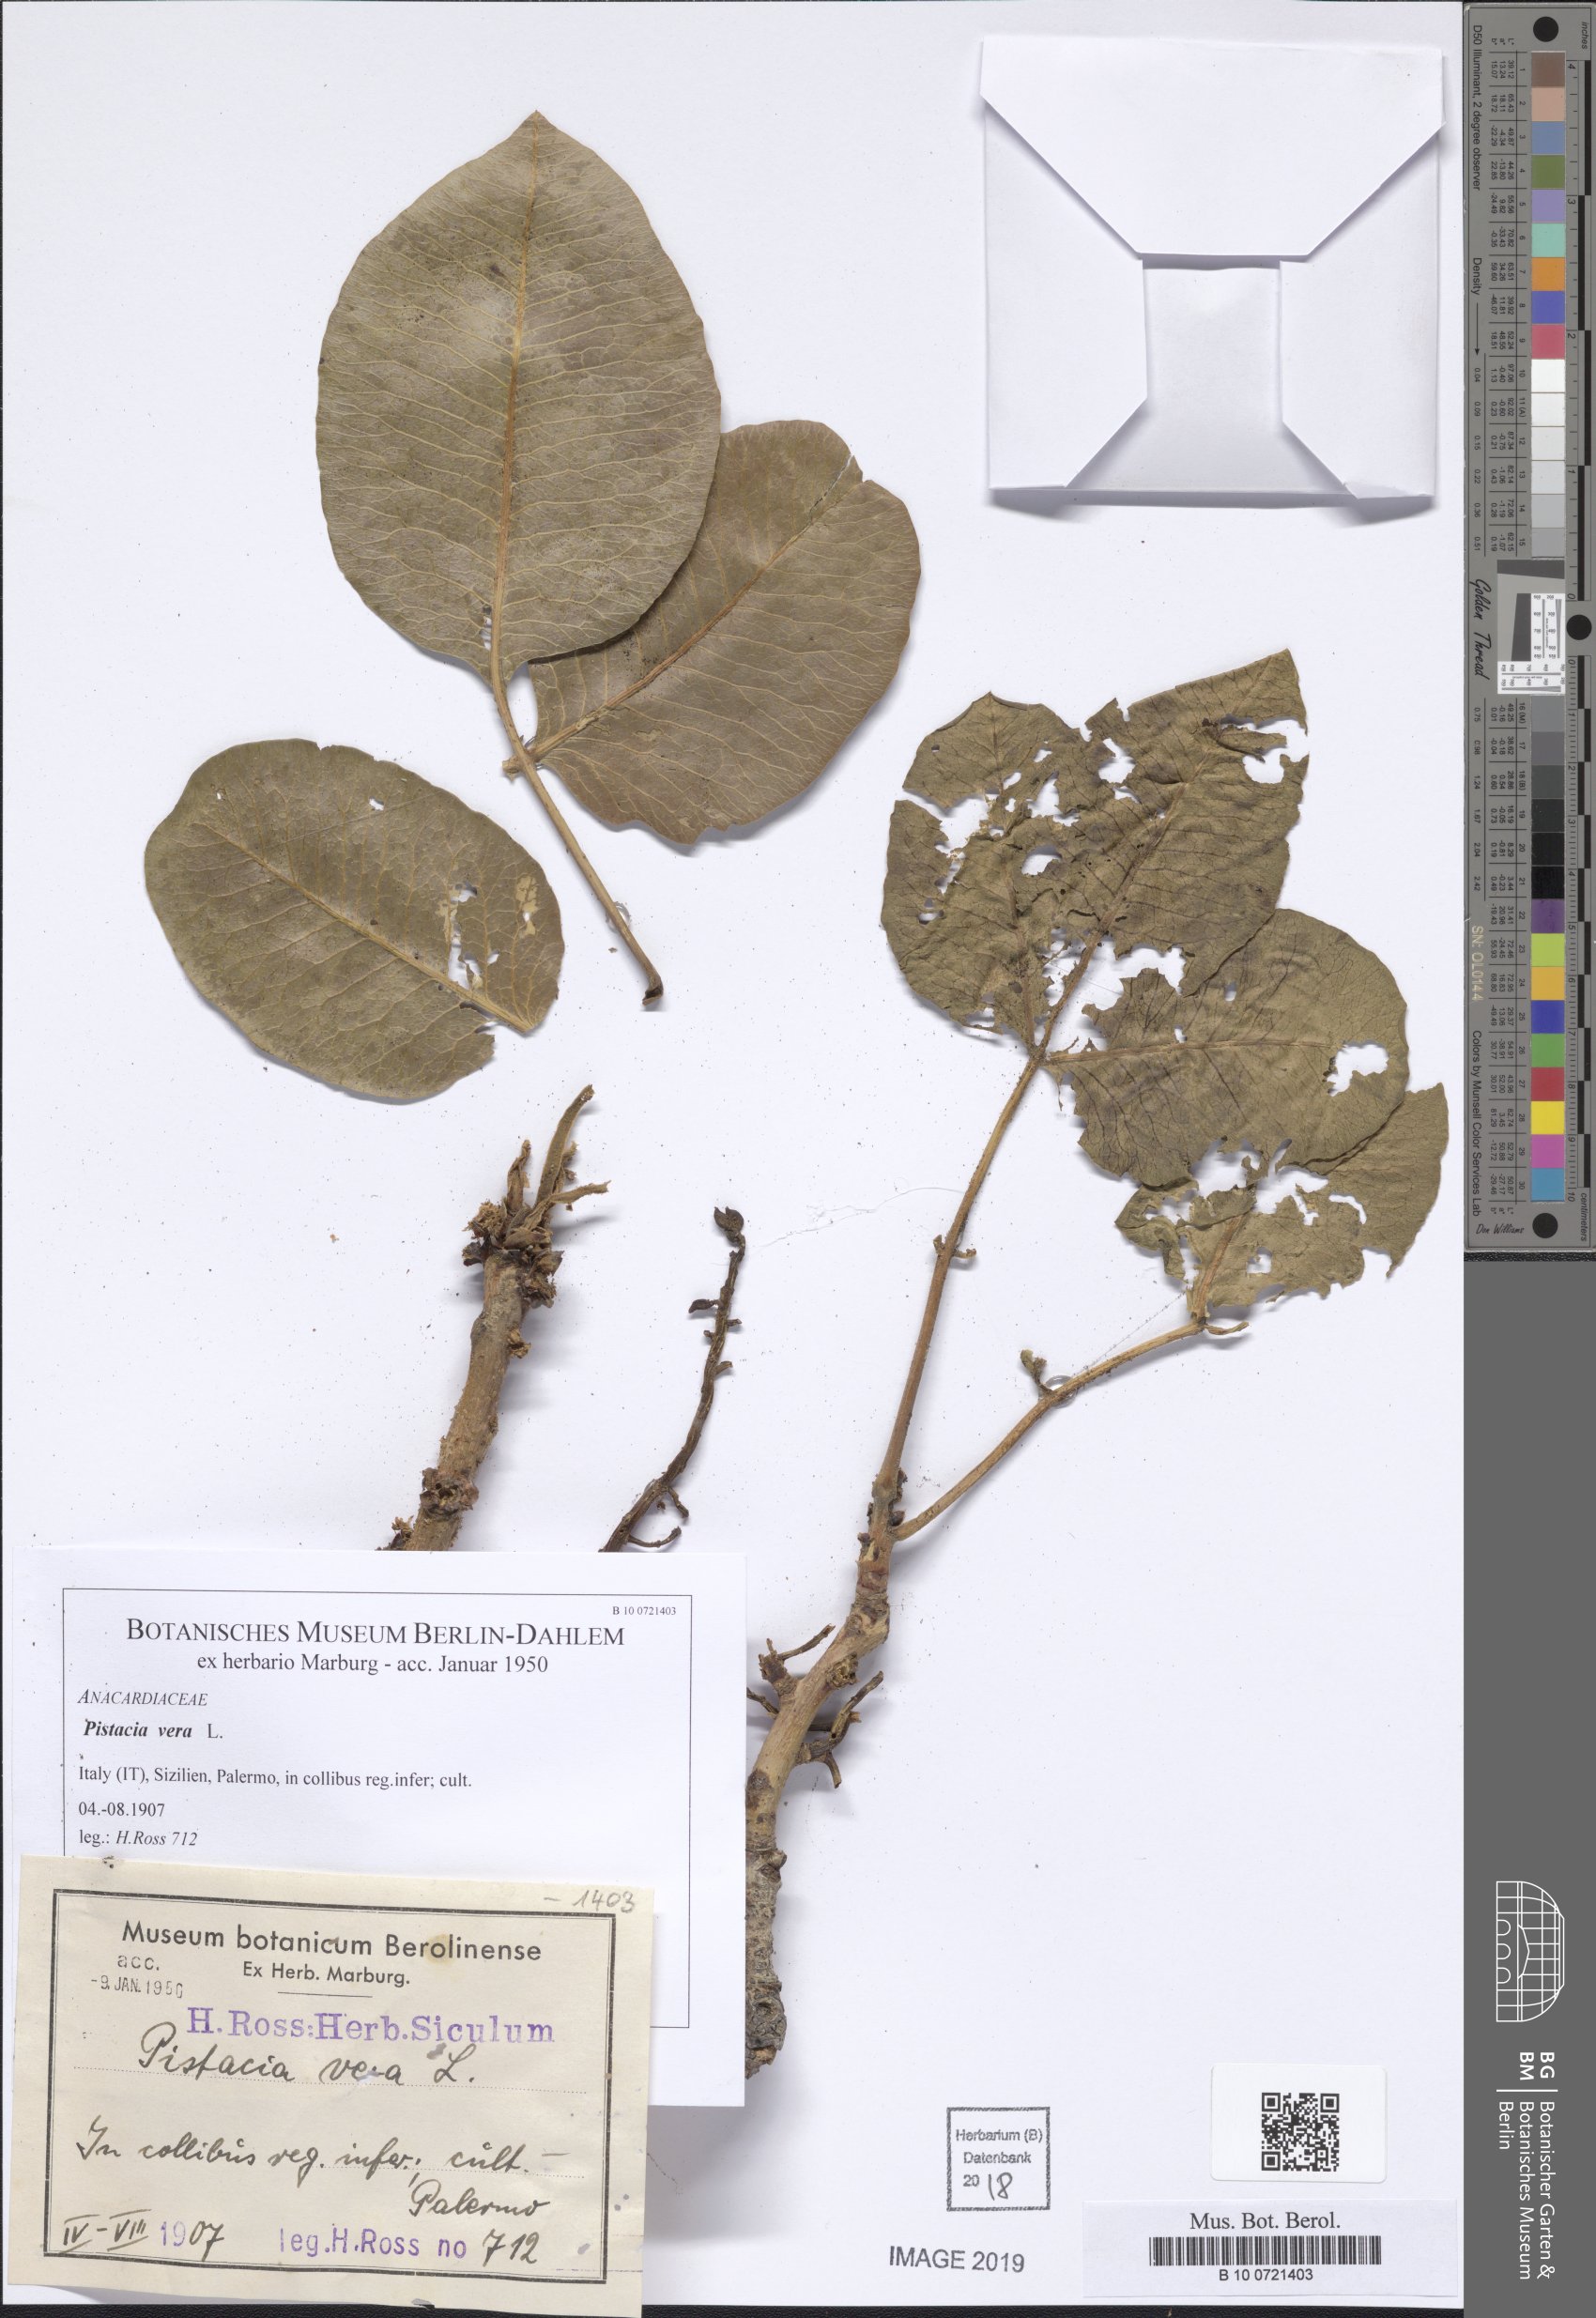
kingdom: Plantae
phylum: Tracheophyta
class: Magnoliopsida
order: Sapindales
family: Anacardiaceae
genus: Pistacia
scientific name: Pistacia vera
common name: Pistachio
